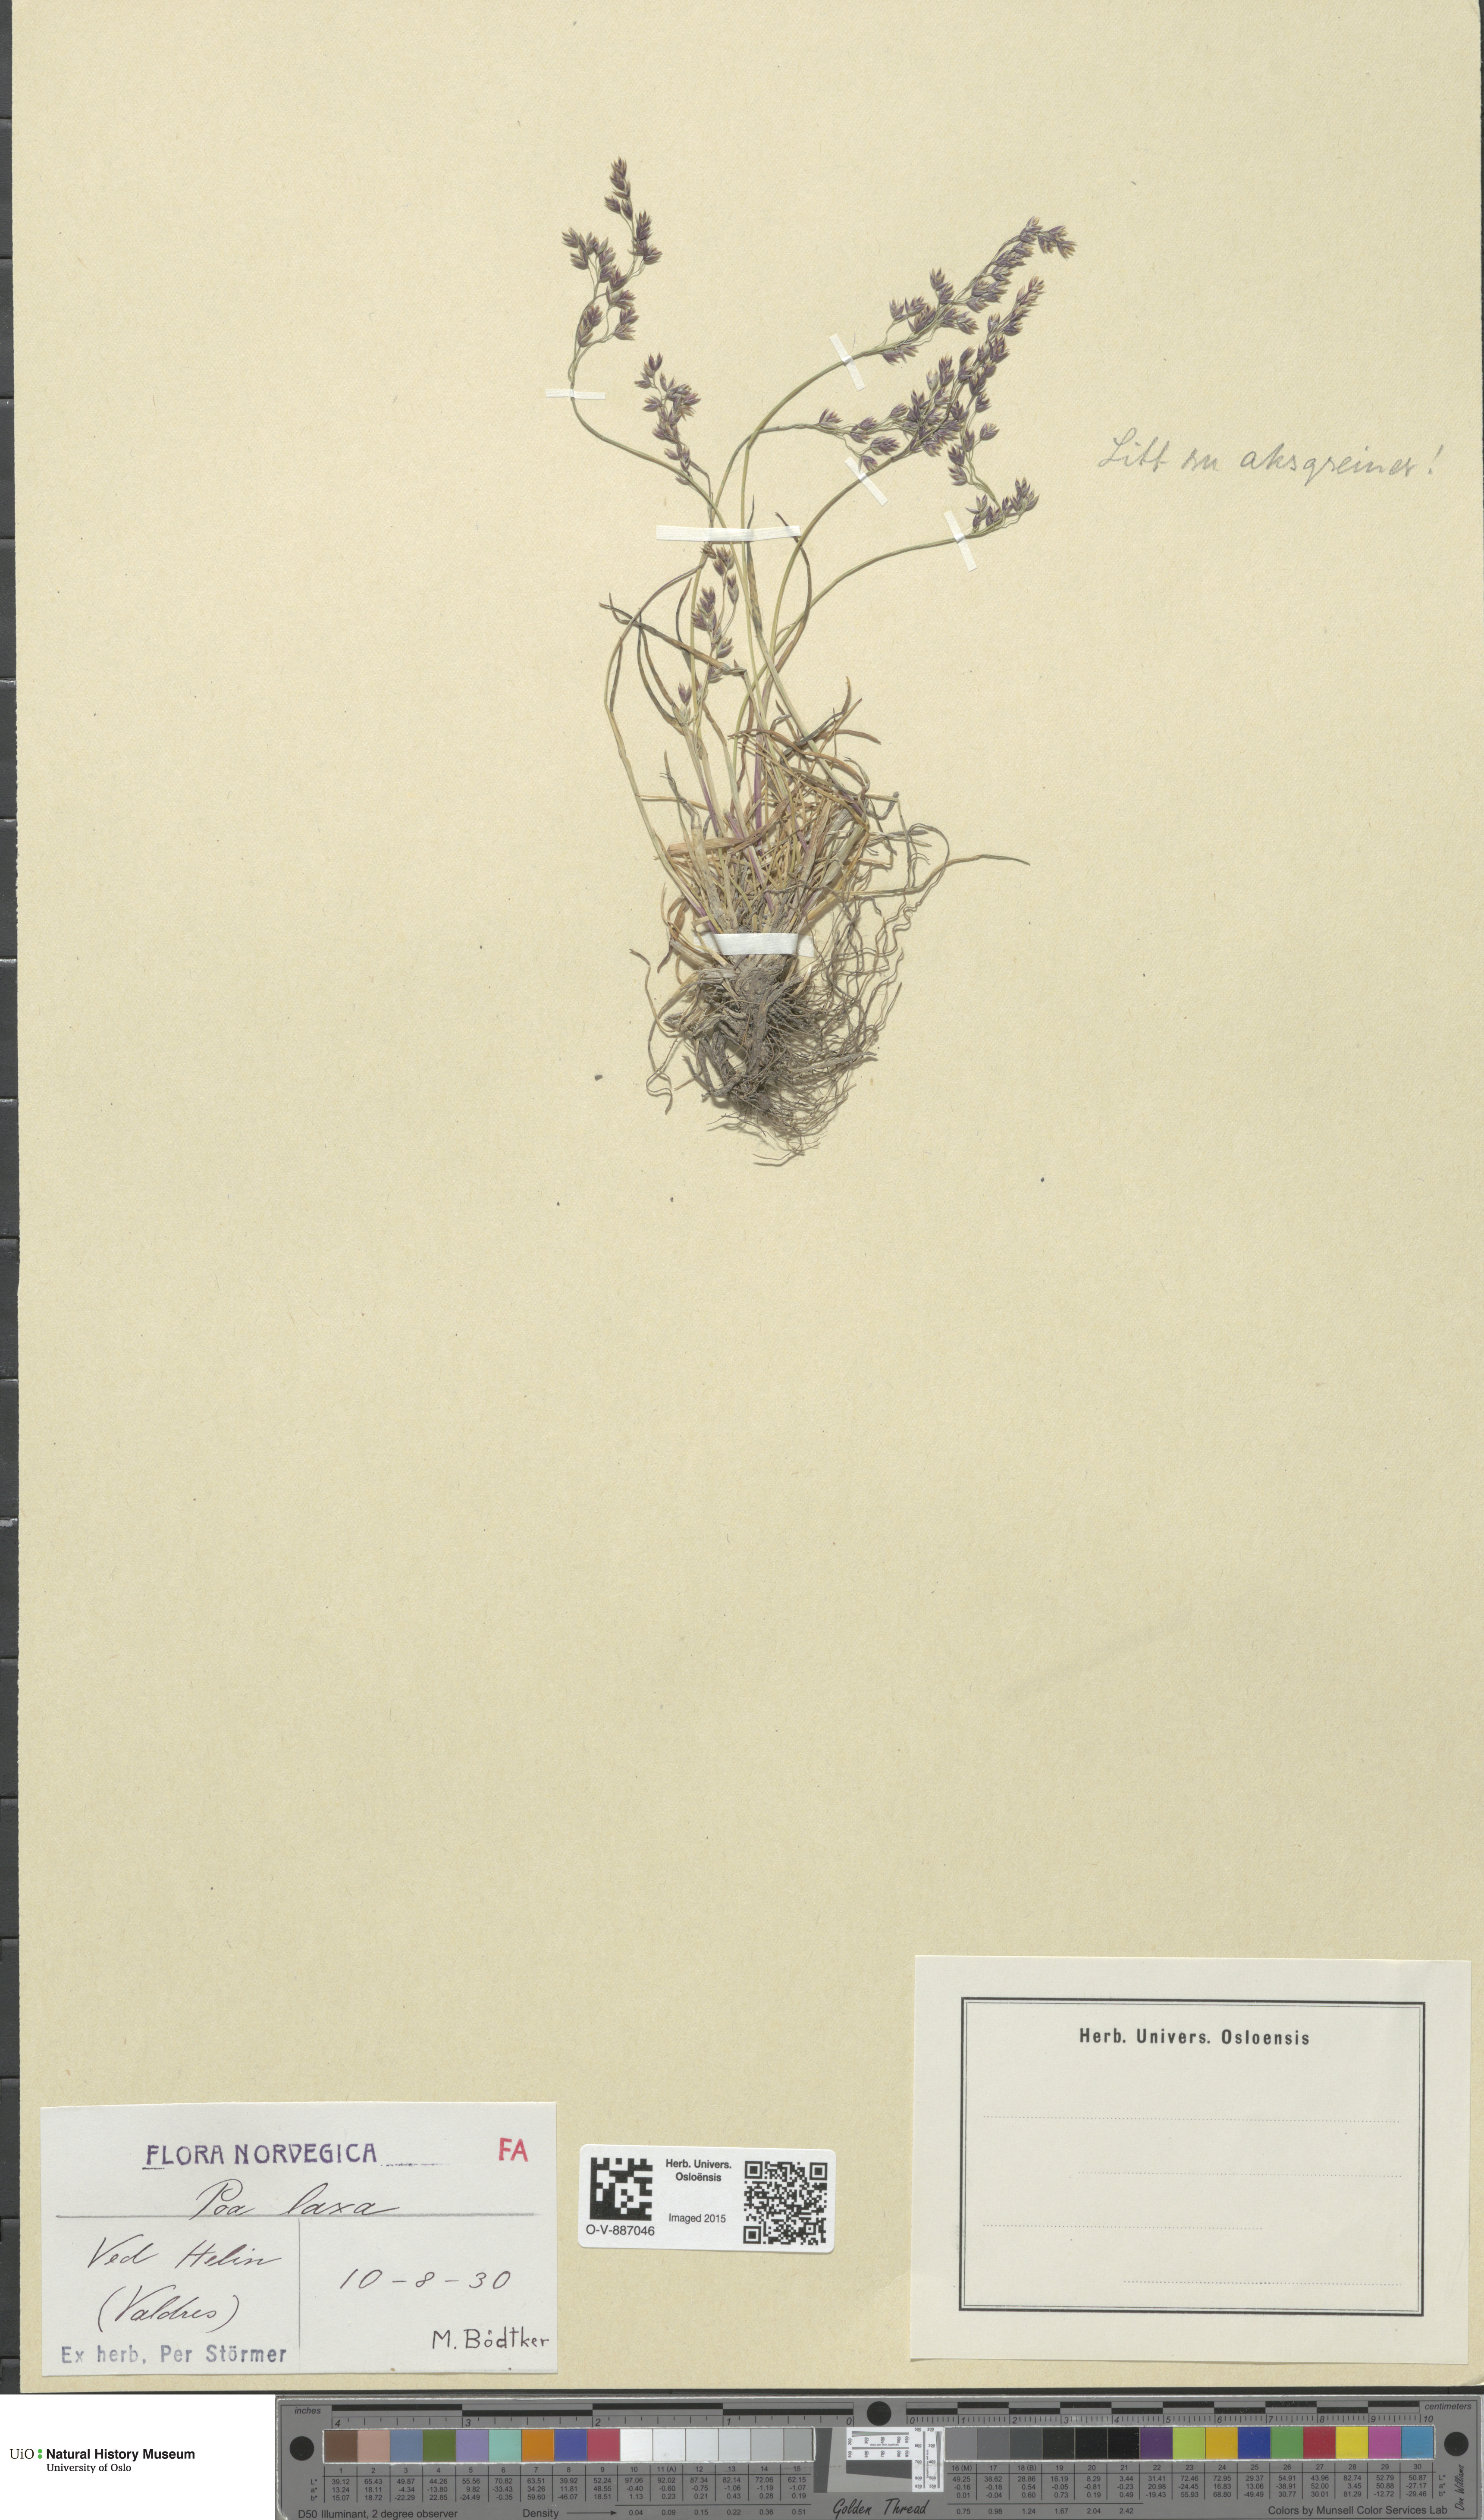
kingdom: Plantae
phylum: Tracheophyta
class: Liliopsida
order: Poales
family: Poaceae
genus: Poa
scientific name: Poa flexuosa
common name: Wavy meadow-grass
